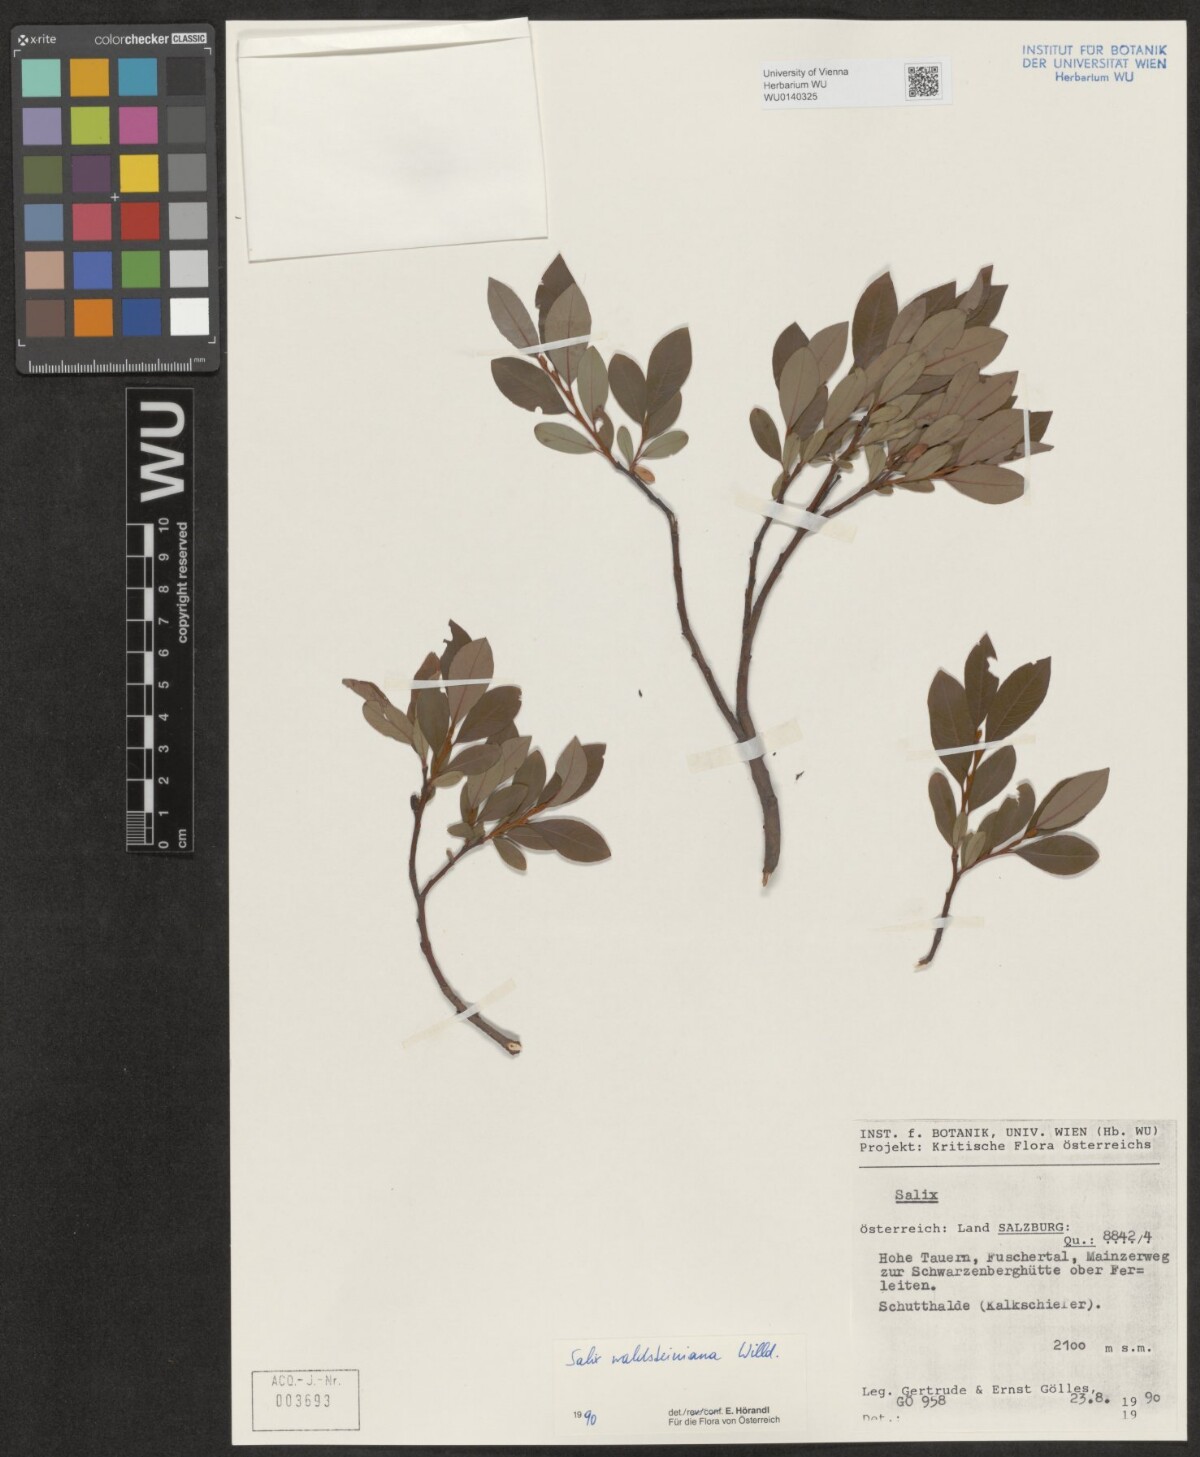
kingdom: Plantae
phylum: Tracheophyta
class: Magnoliopsida
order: Malpighiales
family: Salicaceae
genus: Salix
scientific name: Salix waldsteiniana
